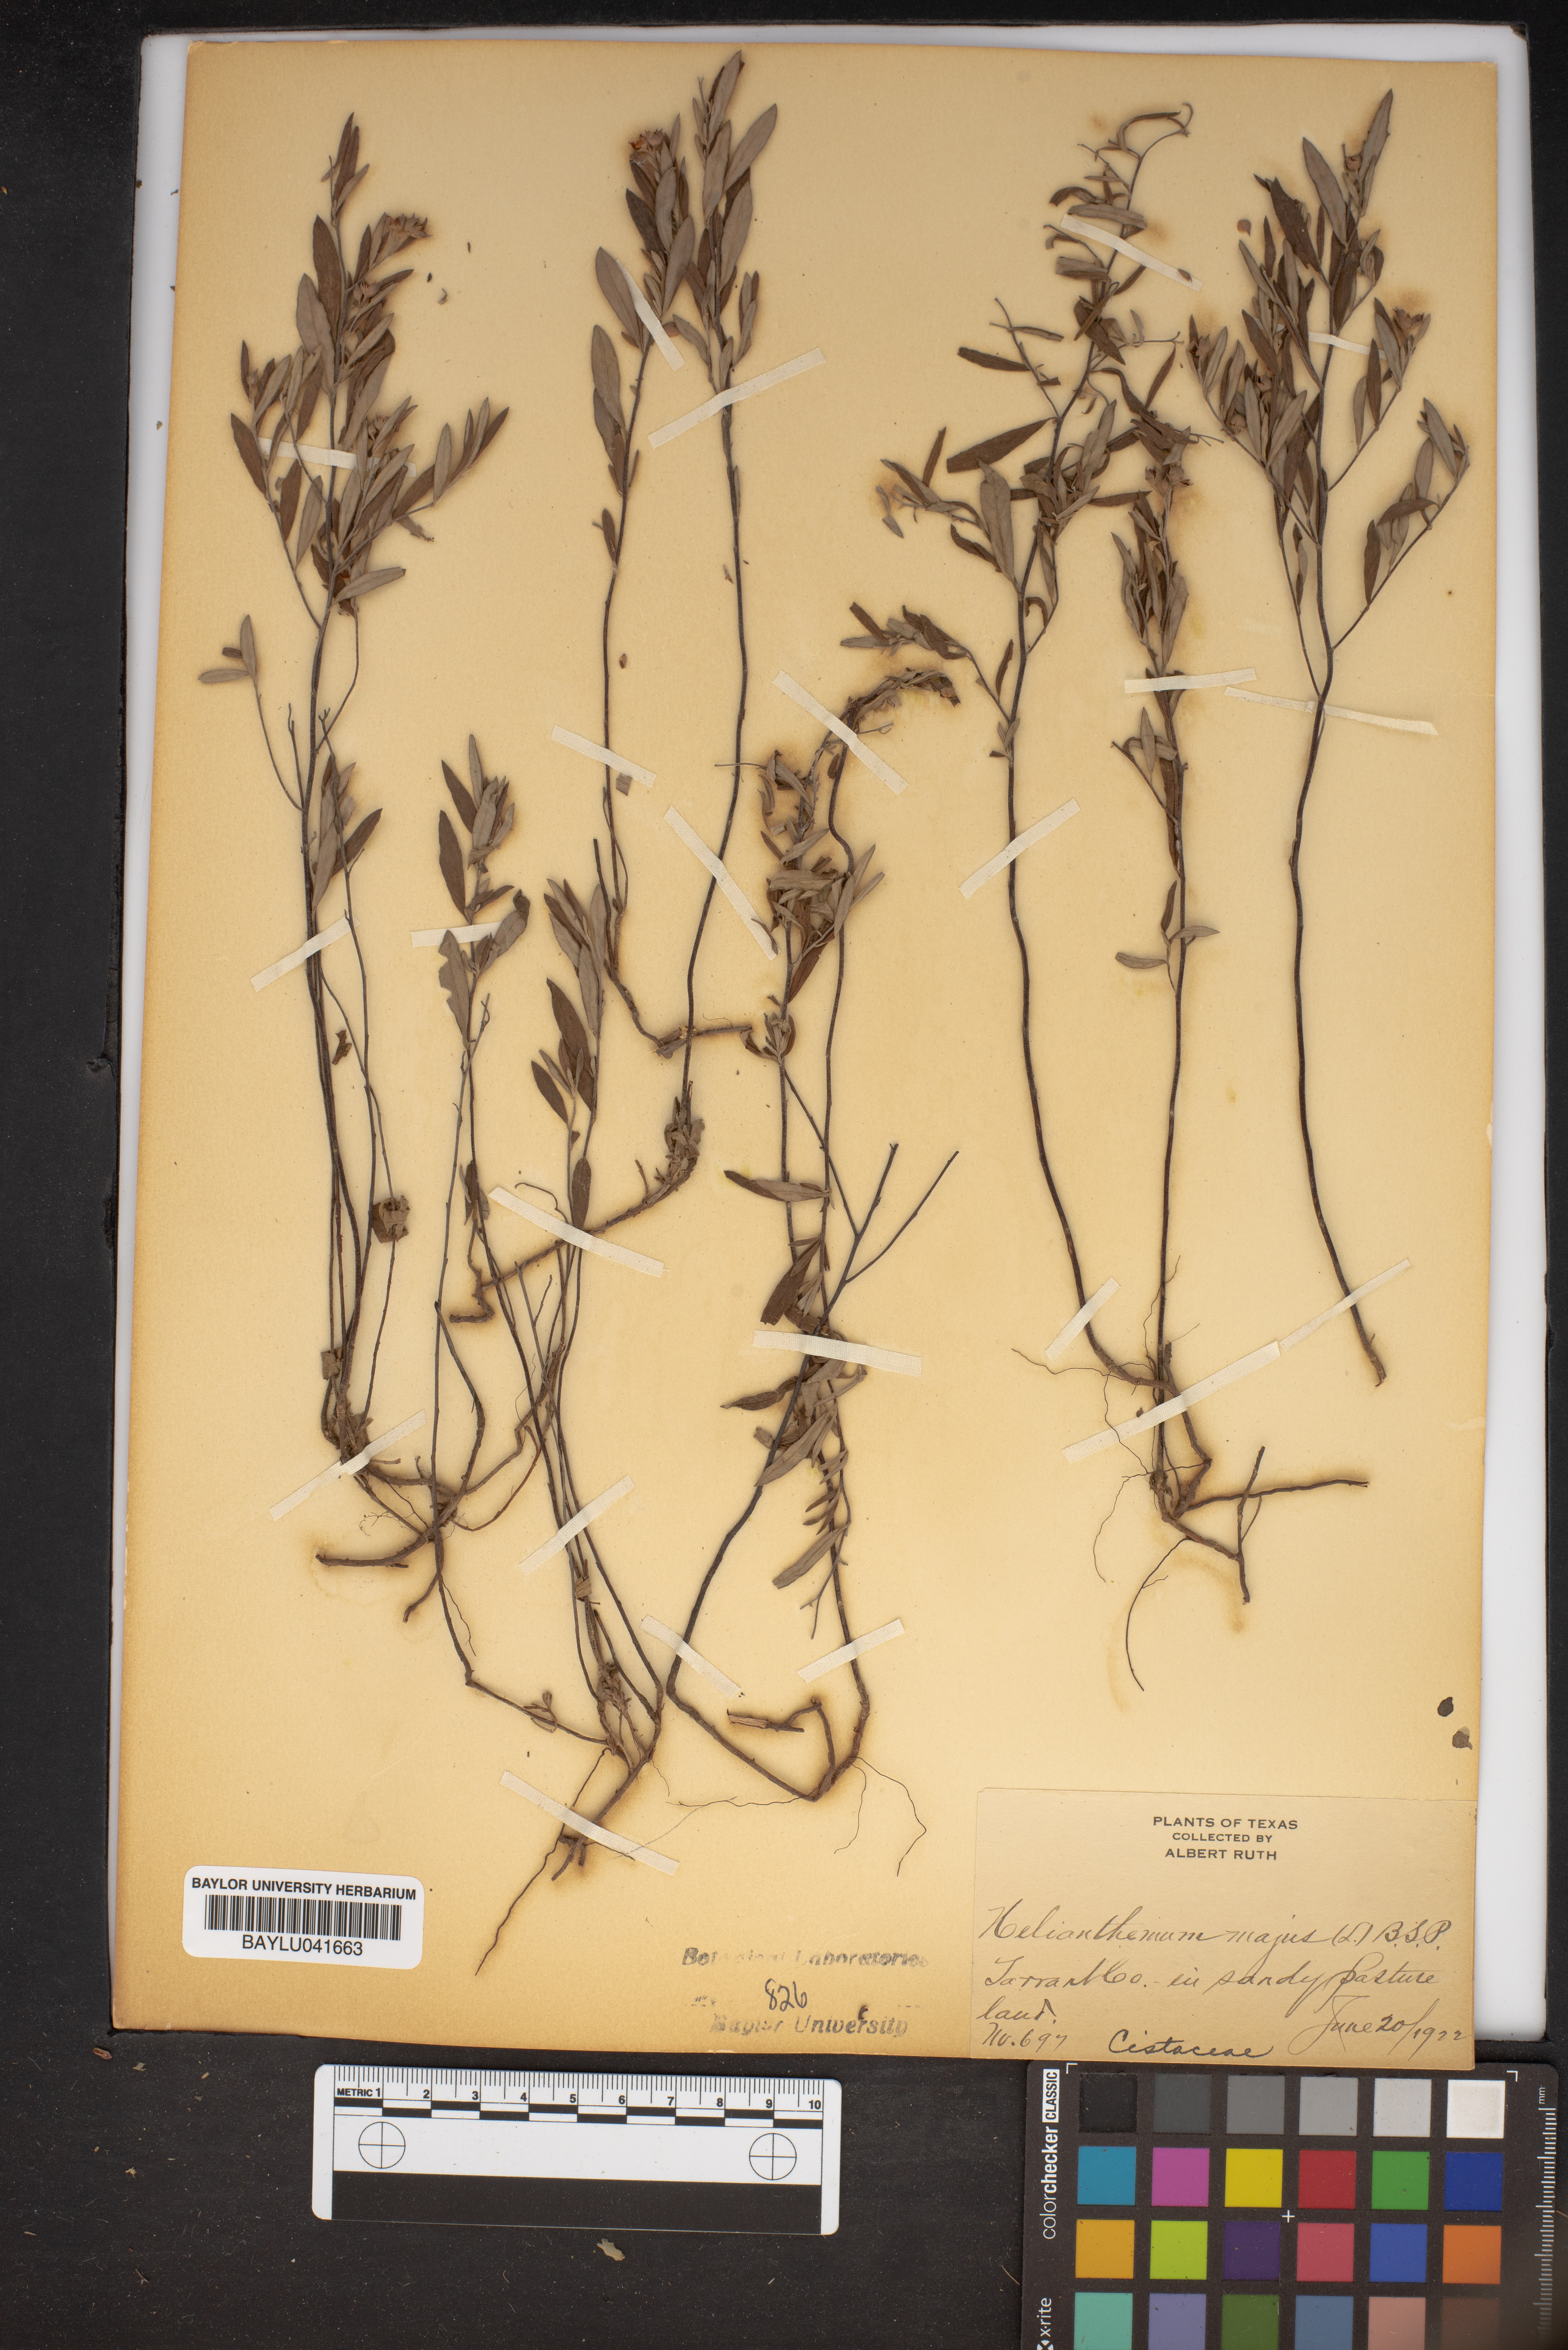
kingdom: Plantae
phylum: Tracheophyta
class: Magnoliopsida
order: Malvales
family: Cistaceae
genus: Crocanthemum
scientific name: Crocanthemum canadense
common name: Canada frostweed
